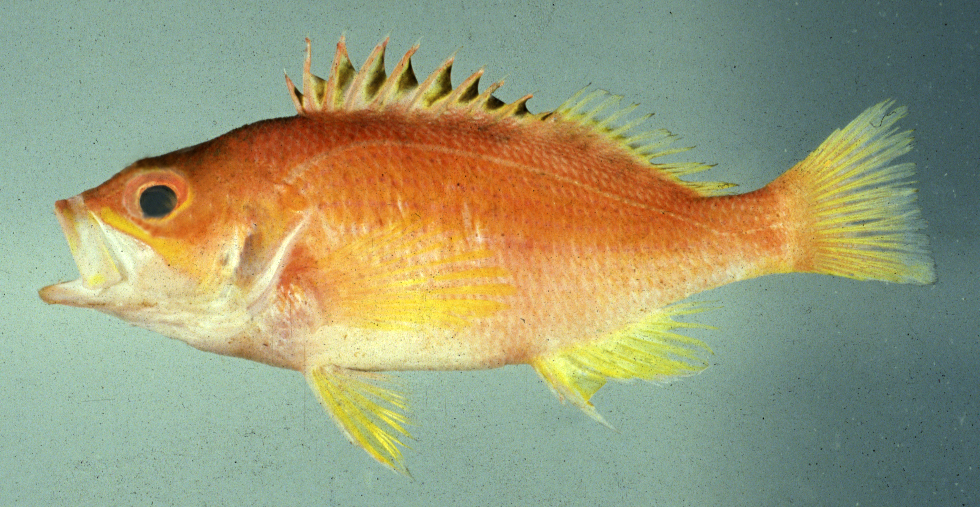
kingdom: Animalia
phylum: Chordata
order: Perciformes
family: Serranidae
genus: Lepidoperca
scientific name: Lepidoperca coatsii
